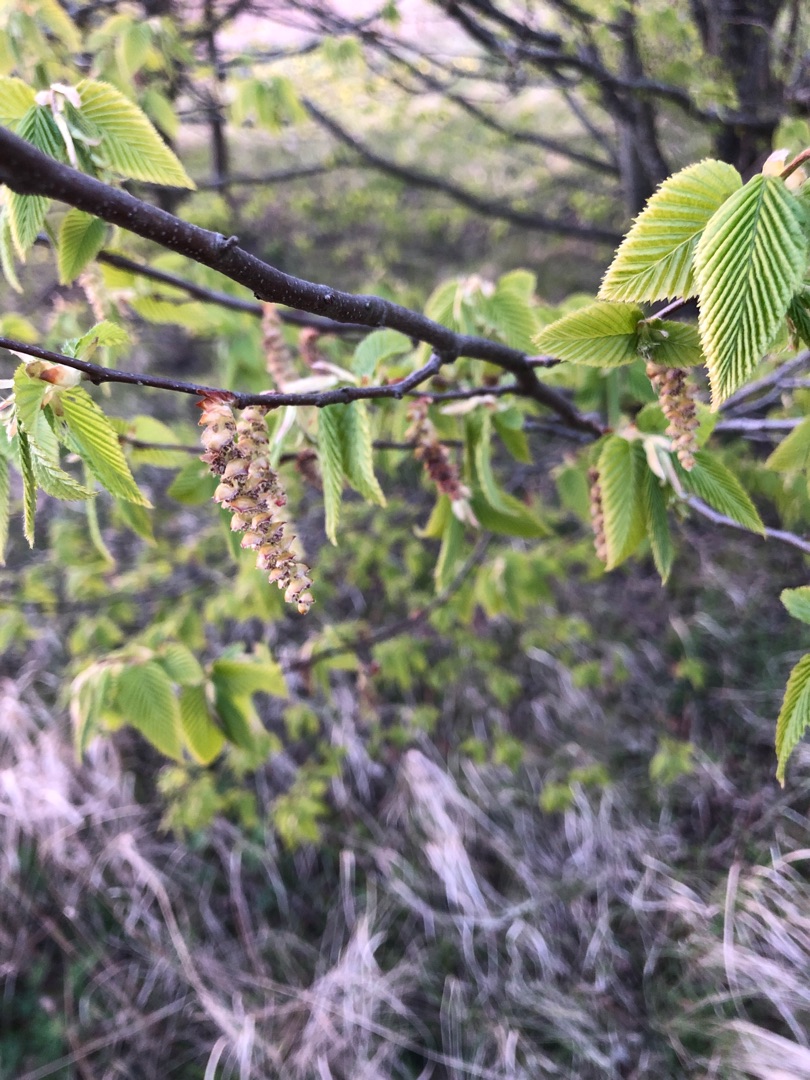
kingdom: Plantae
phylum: Tracheophyta
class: Magnoliopsida
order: Fagales
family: Betulaceae
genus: Carpinus
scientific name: Carpinus betulus
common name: Avnbøg
